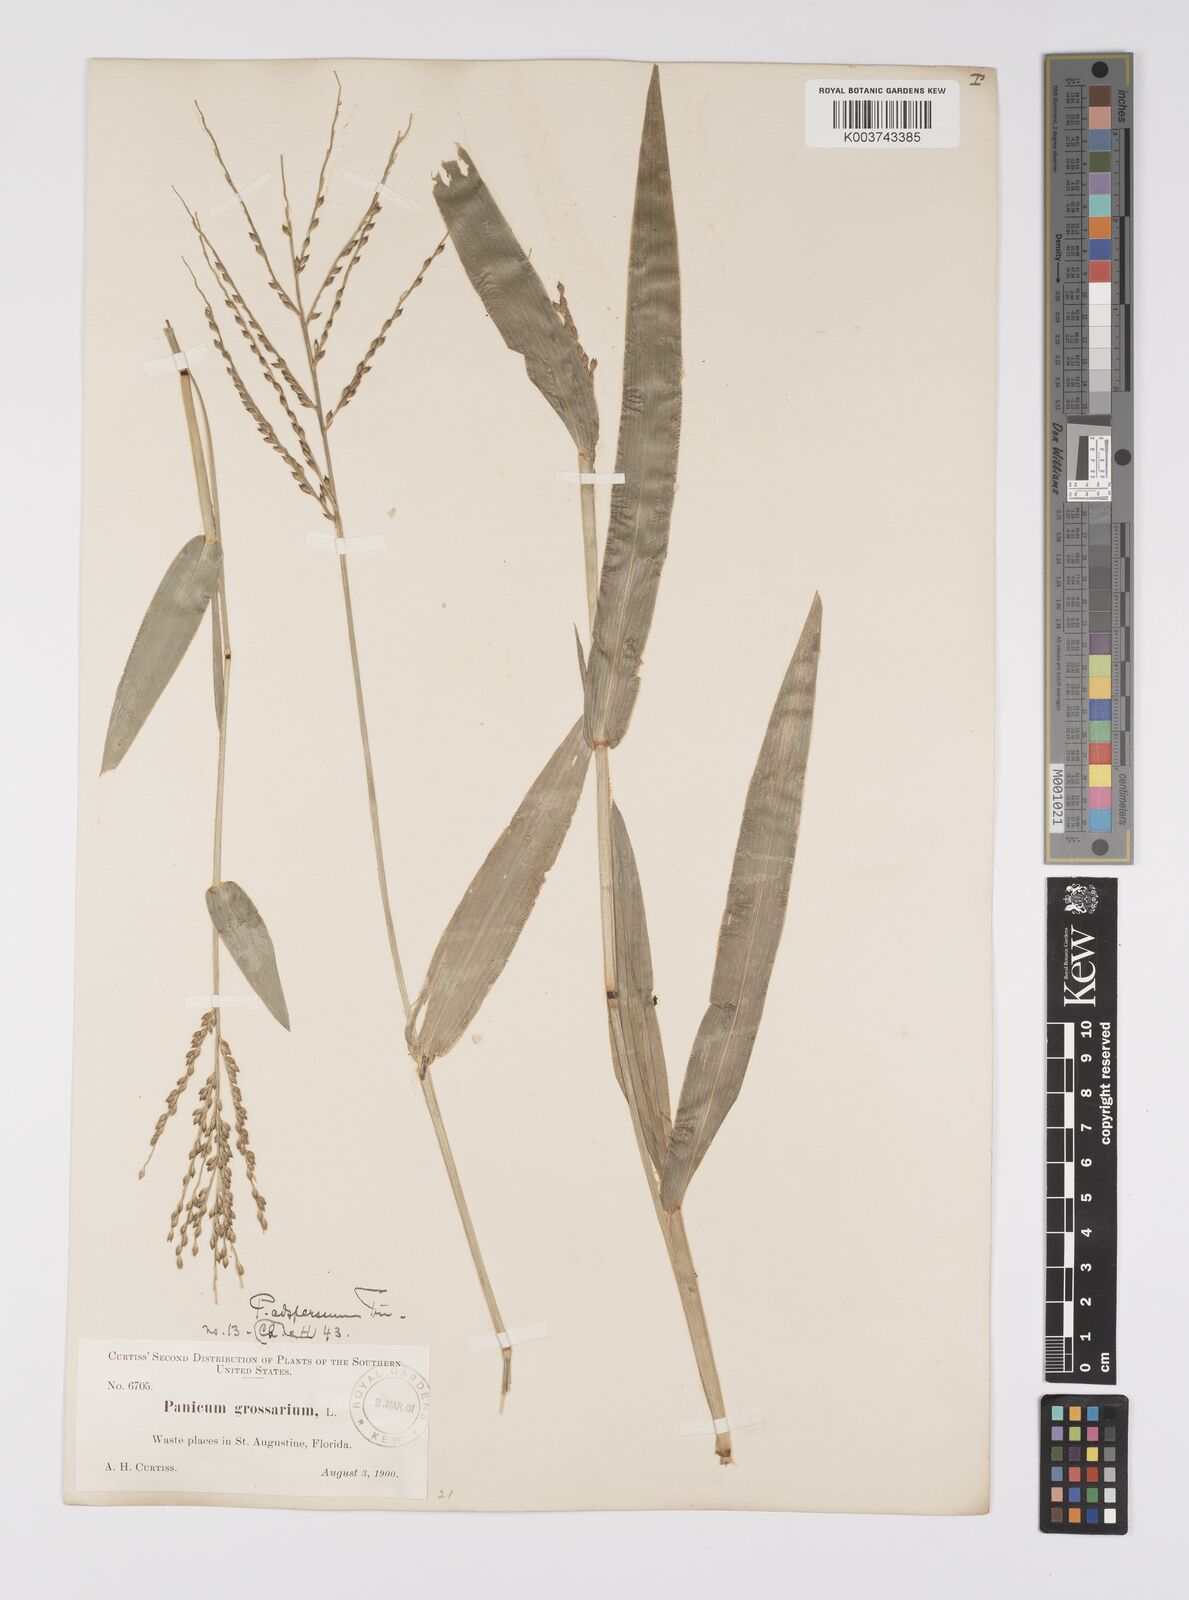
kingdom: Plantae
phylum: Tracheophyta
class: Liliopsida
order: Poales
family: Poaceae
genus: Urochloa
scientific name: Urochloa adspersa
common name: Dominican signal grass
